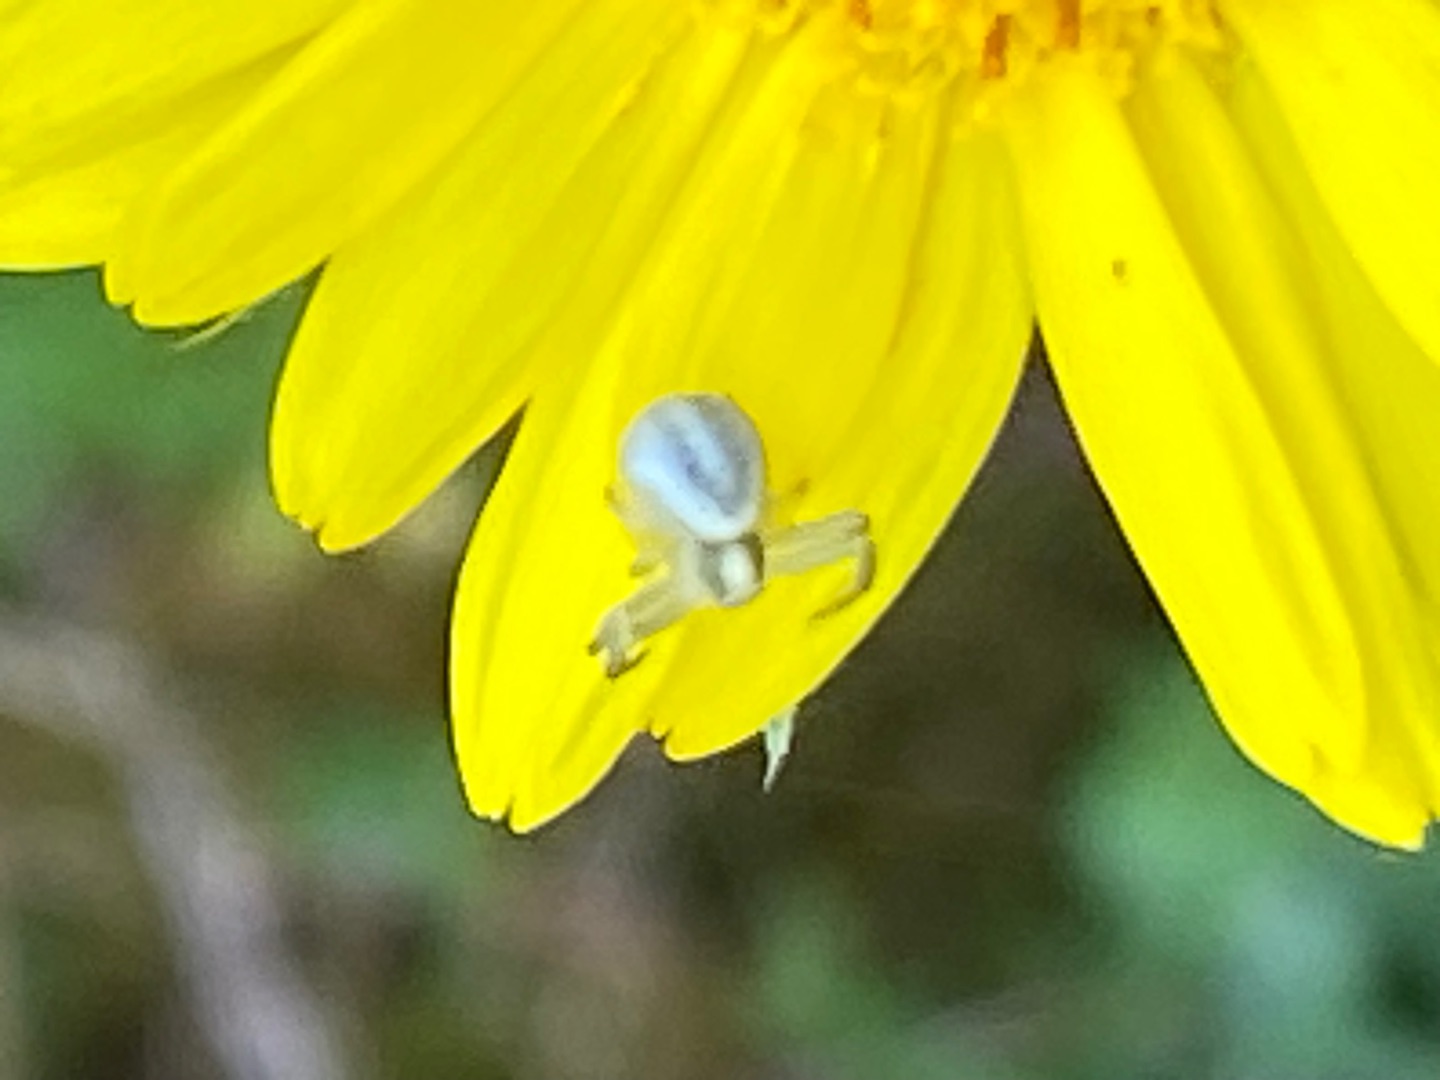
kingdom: Animalia
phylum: Arthropoda
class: Arachnida
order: Araneae
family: Thomisidae
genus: Misumena
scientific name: Misumena vatia
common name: Kamæleonedderkop
